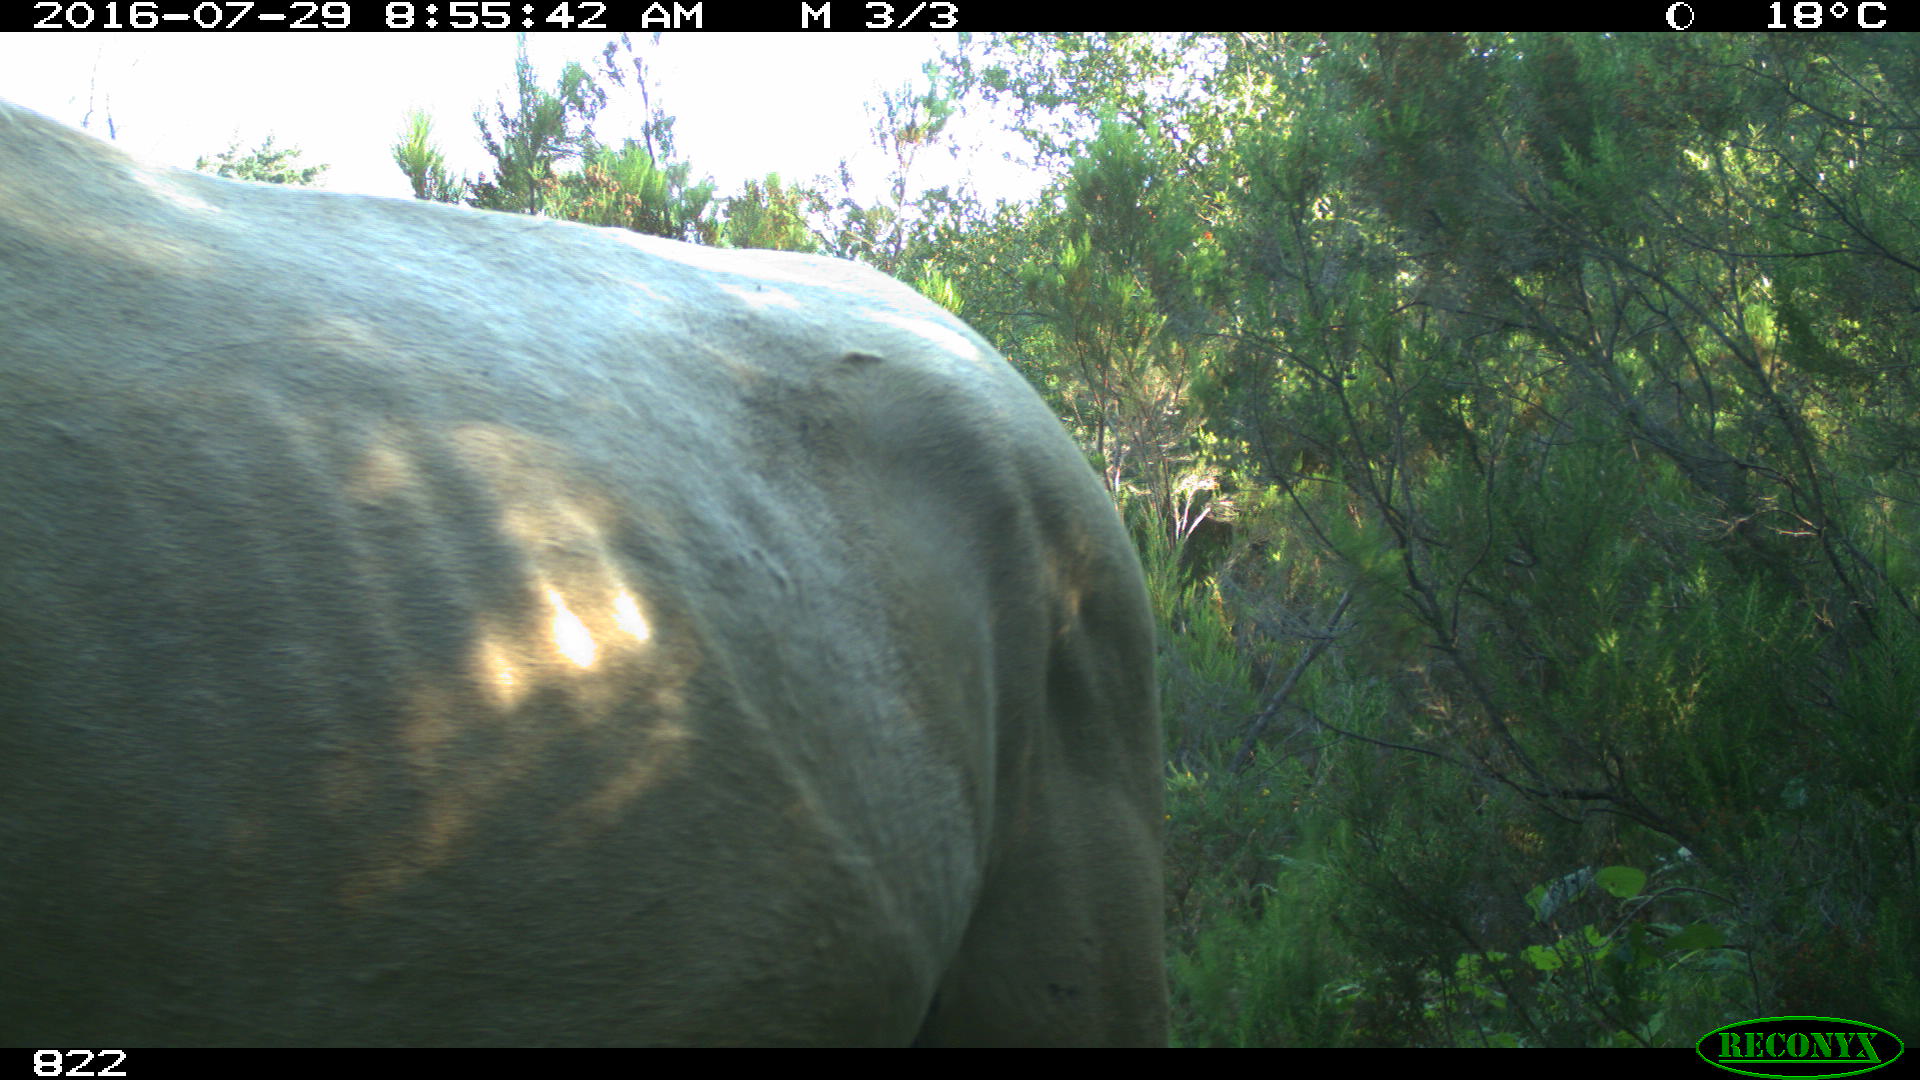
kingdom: Animalia
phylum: Chordata
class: Mammalia
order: Perissodactyla
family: Equidae
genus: Equus
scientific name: Equus caballus
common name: Horse
